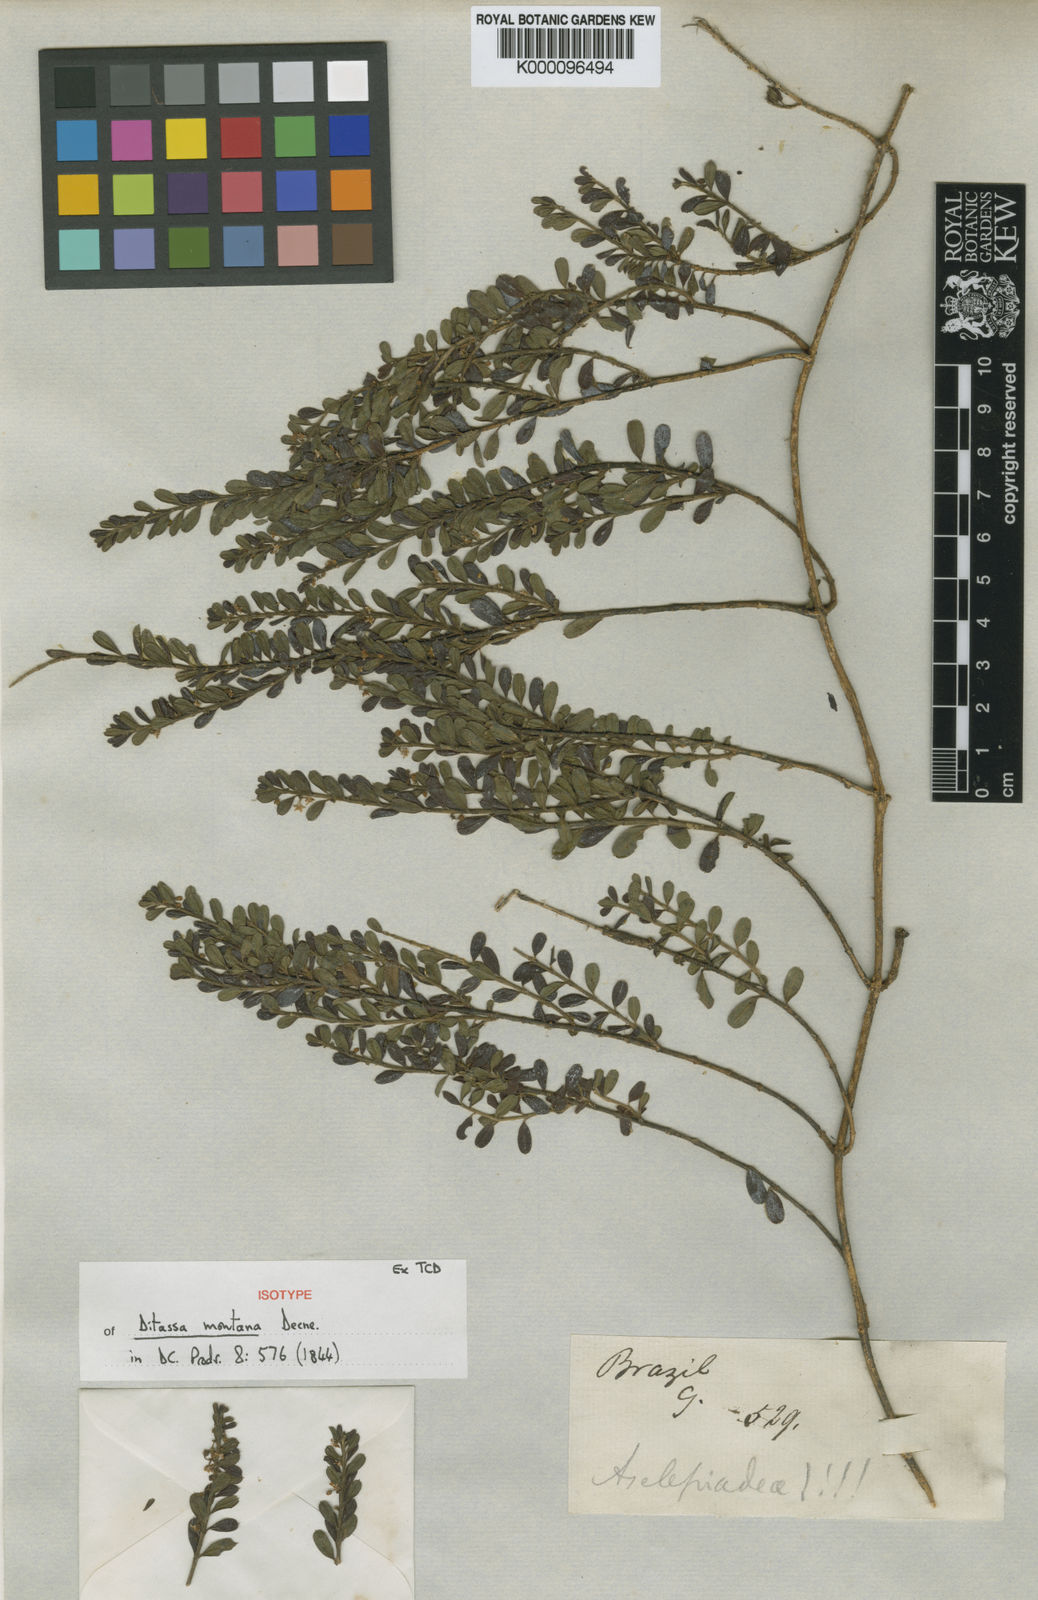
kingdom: Plantae
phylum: Tracheophyta
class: Magnoliopsida
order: Gentianales
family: Apocynaceae
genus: Ditassa
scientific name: Ditassa mucronata
